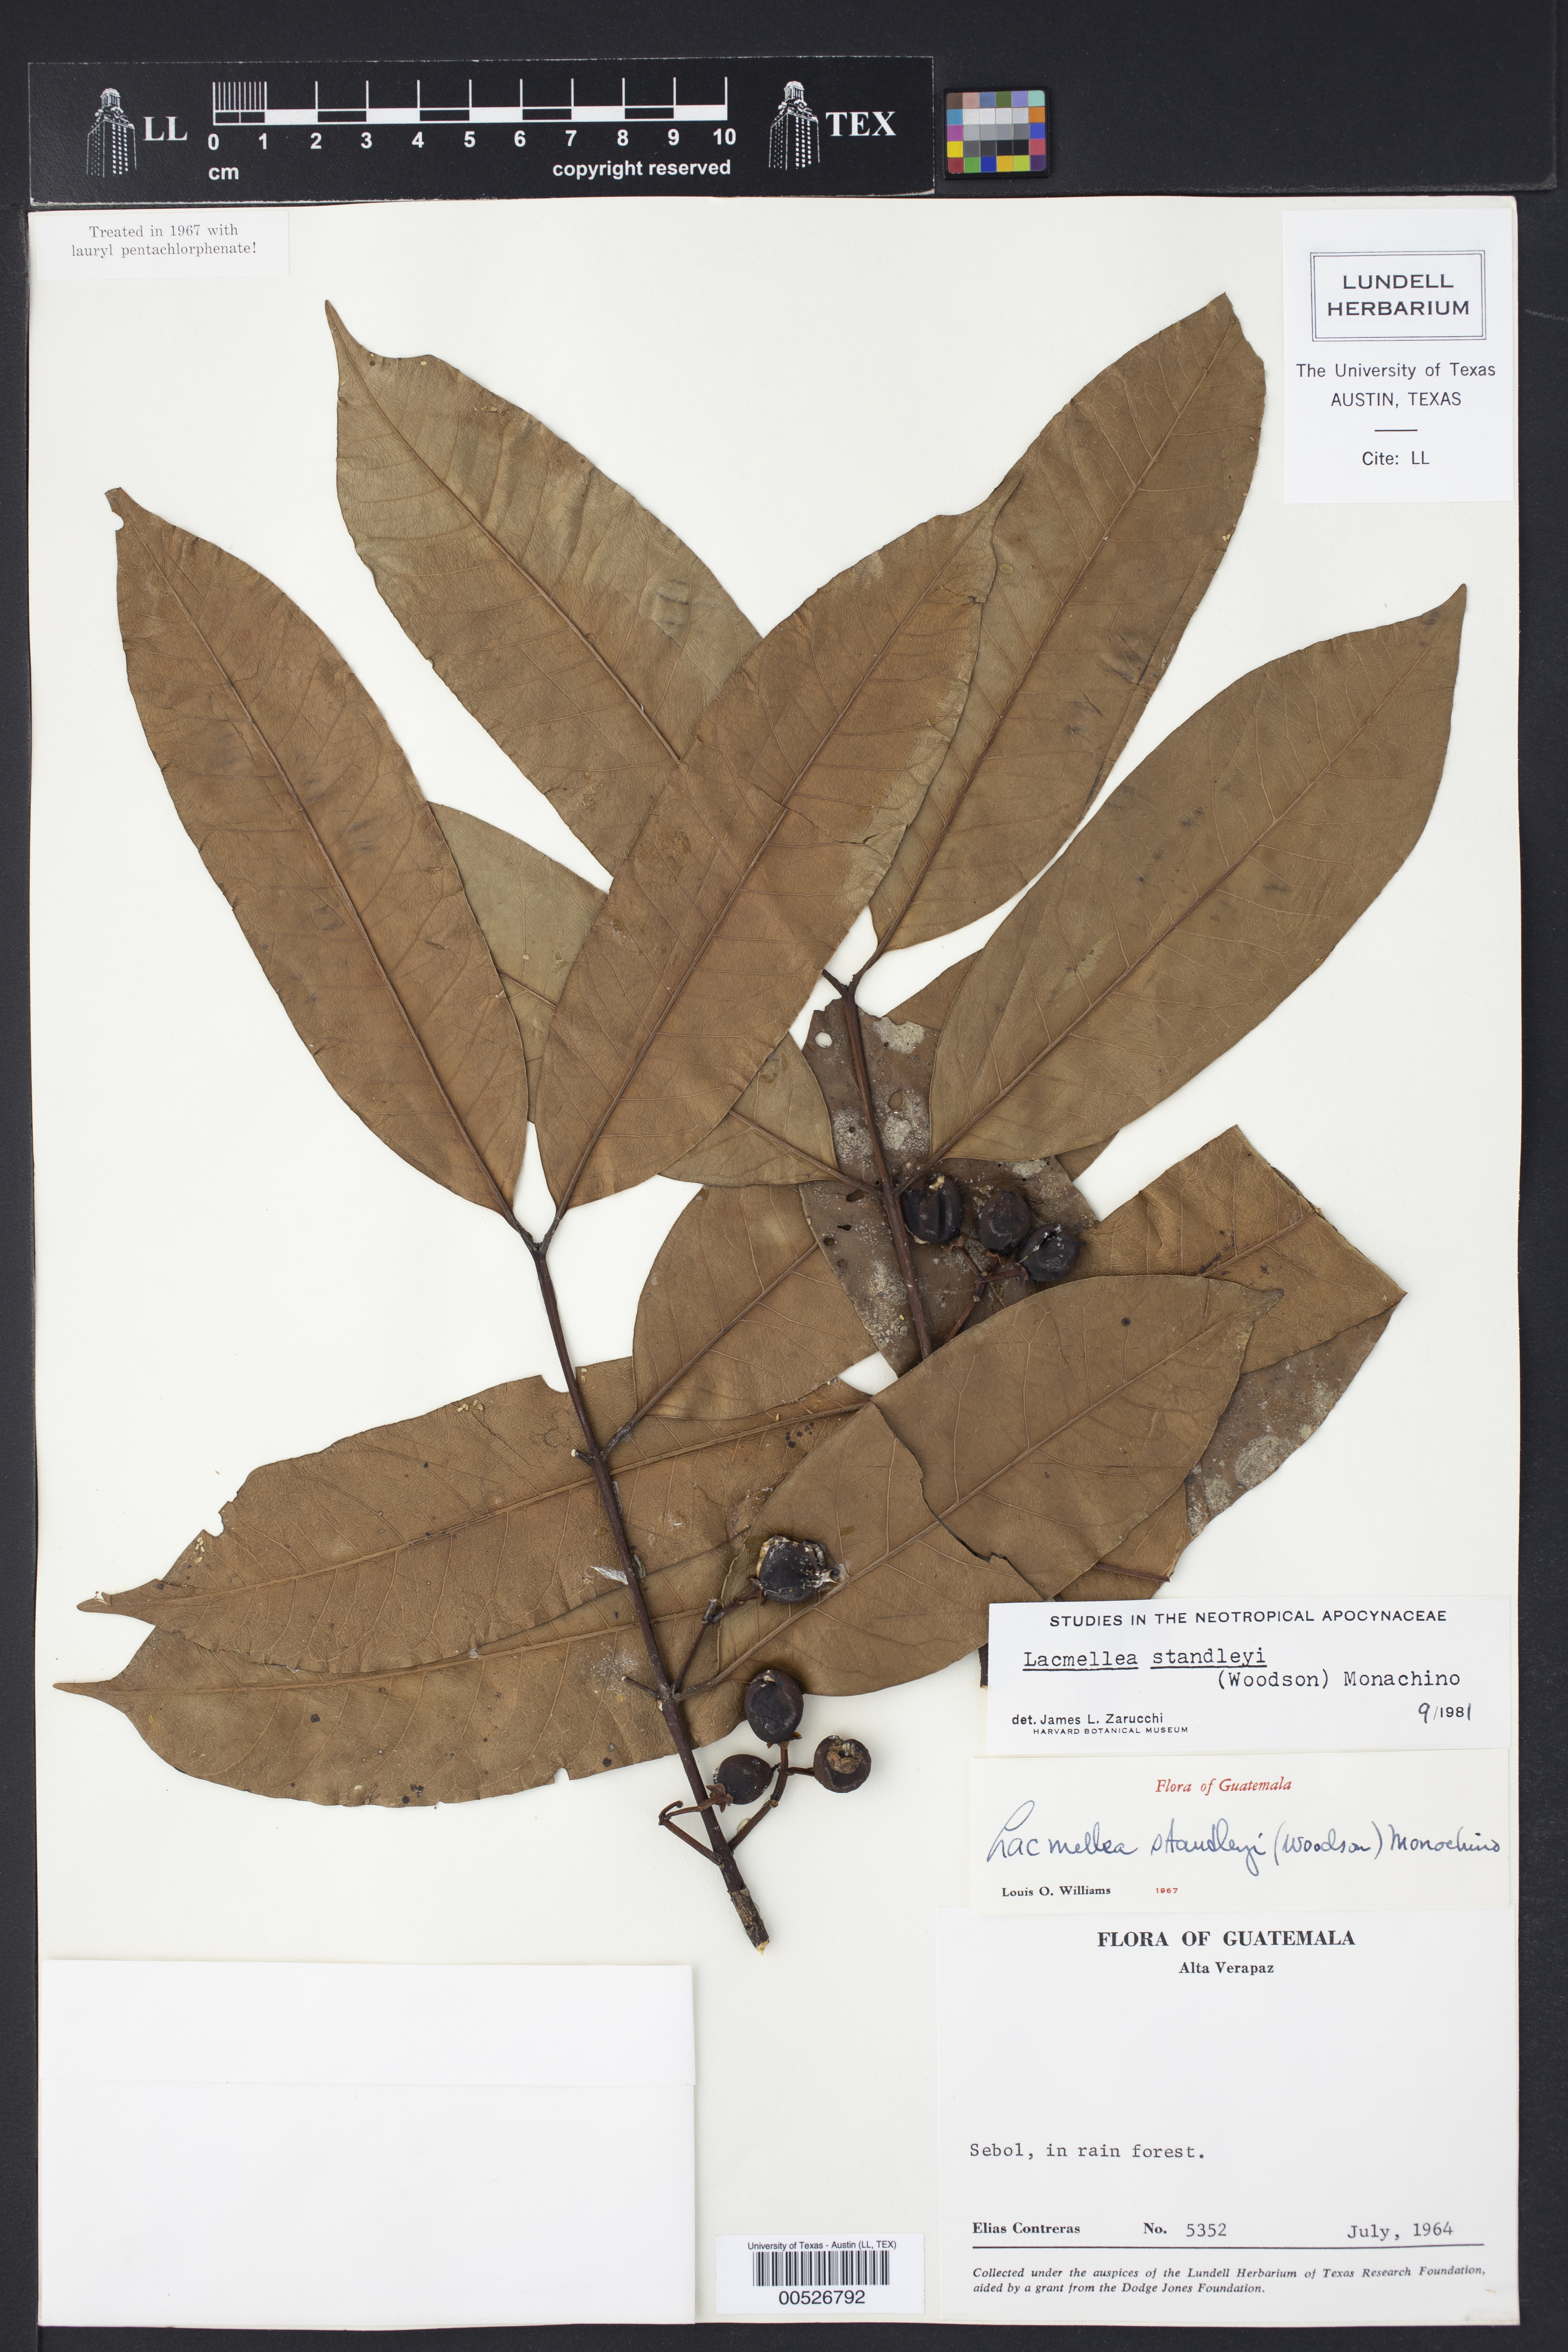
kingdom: Plantae
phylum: Tracheophyta
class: Magnoliopsida
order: Gentianales
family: Apocynaceae
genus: Lacmellea
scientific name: Lacmellea standleyi
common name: Milk tree
